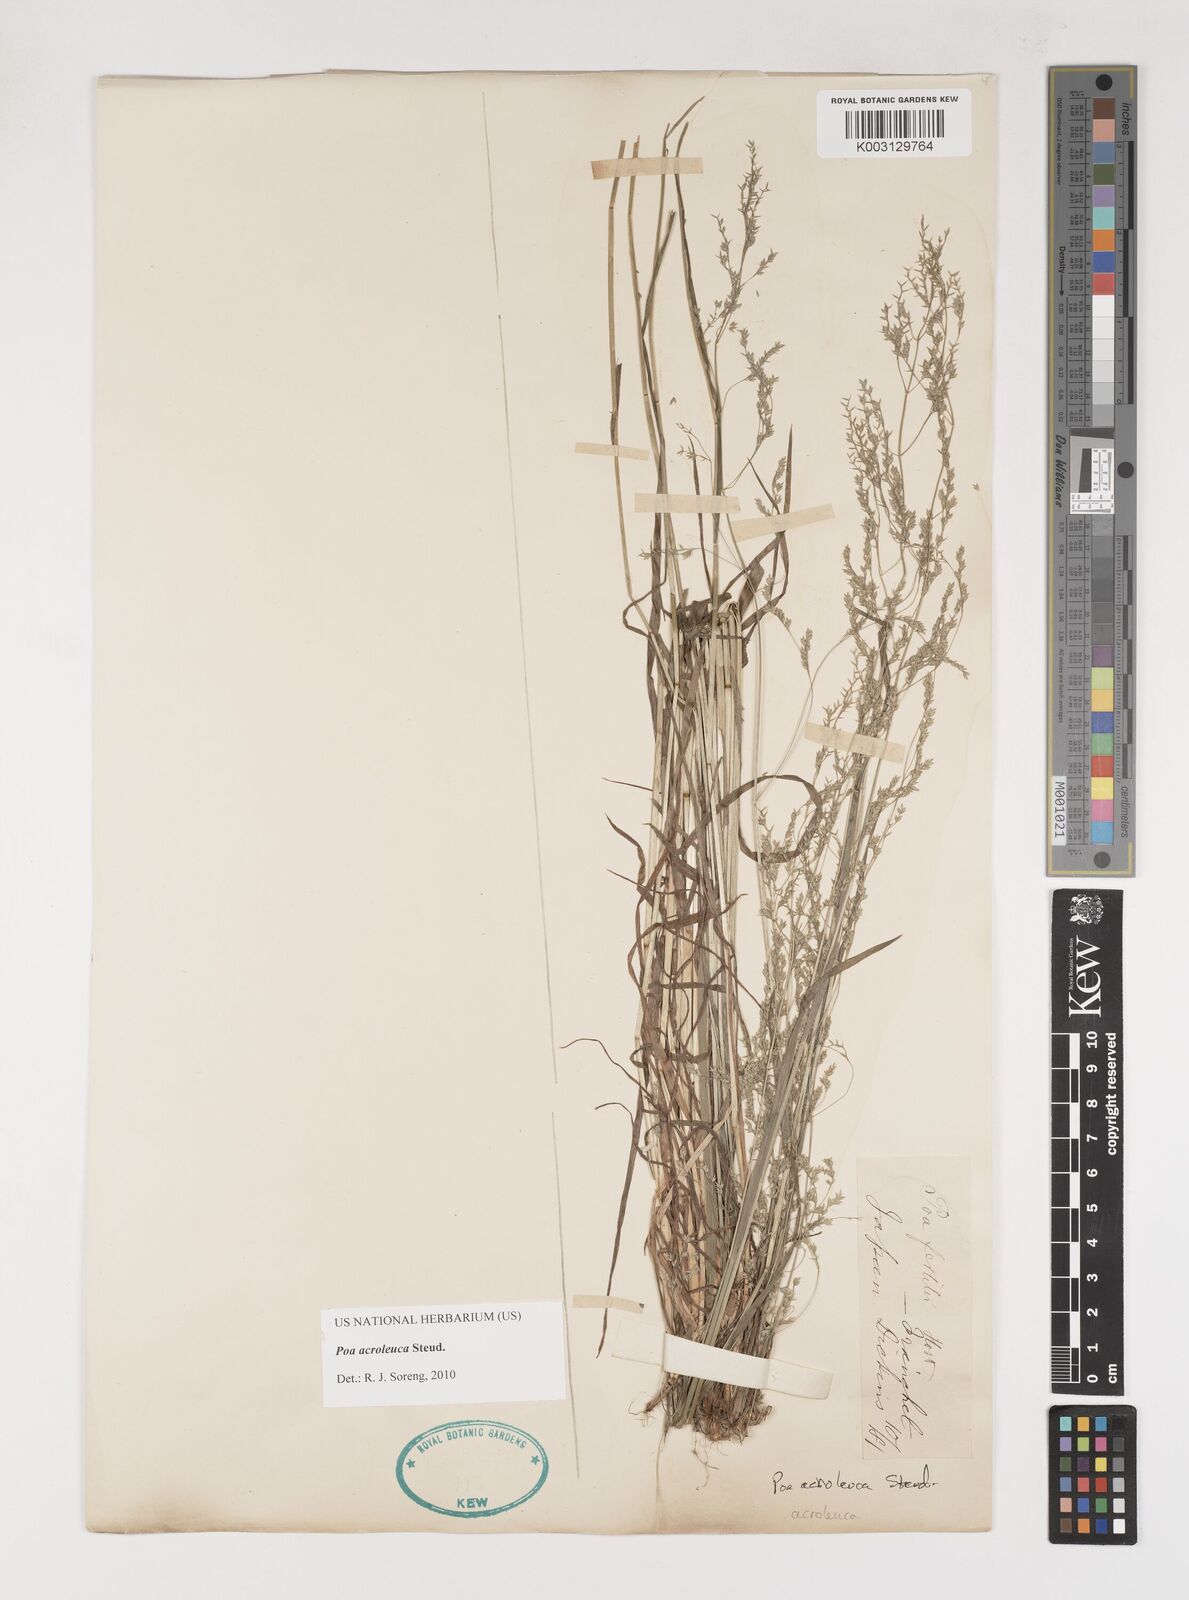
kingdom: Plantae
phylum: Tracheophyta
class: Liliopsida
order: Poales
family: Poaceae
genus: Poa
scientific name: Poa acroleuca
